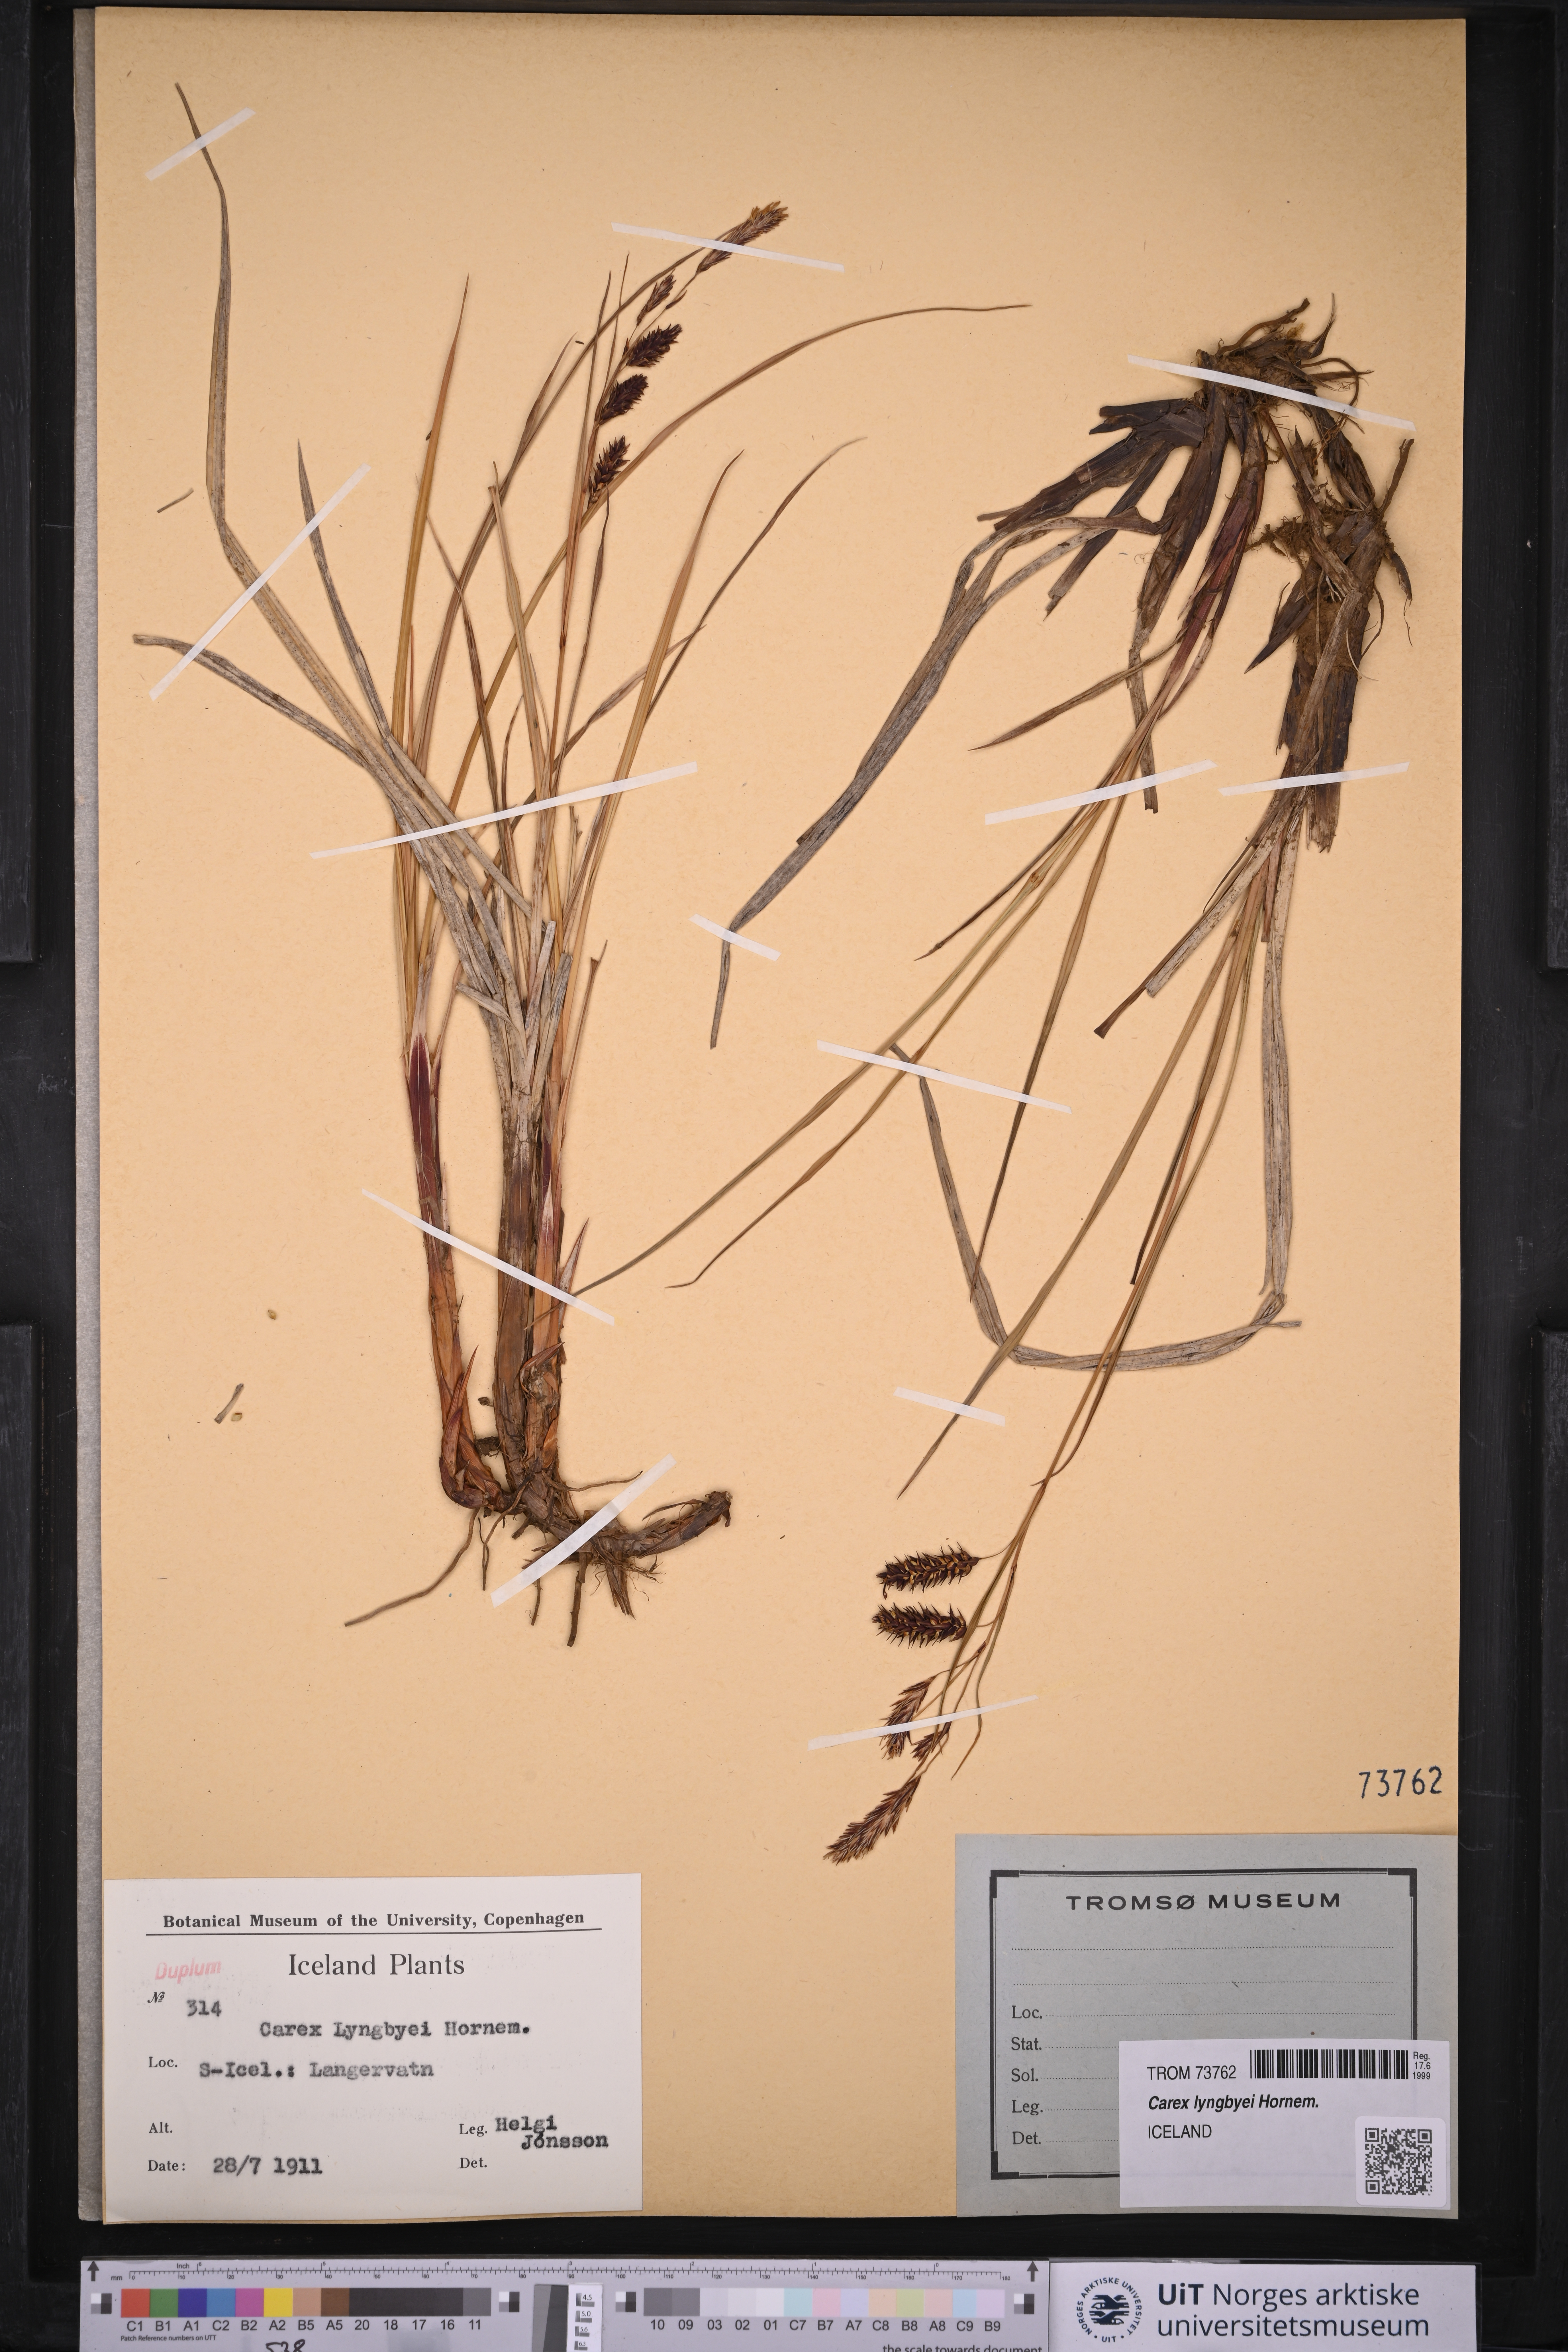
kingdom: Plantae
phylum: Tracheophyta
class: Liliopsida
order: Poales
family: Cyperaceae
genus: Carex
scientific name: Carex lyngbyei
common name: Lyngbye's sedge
